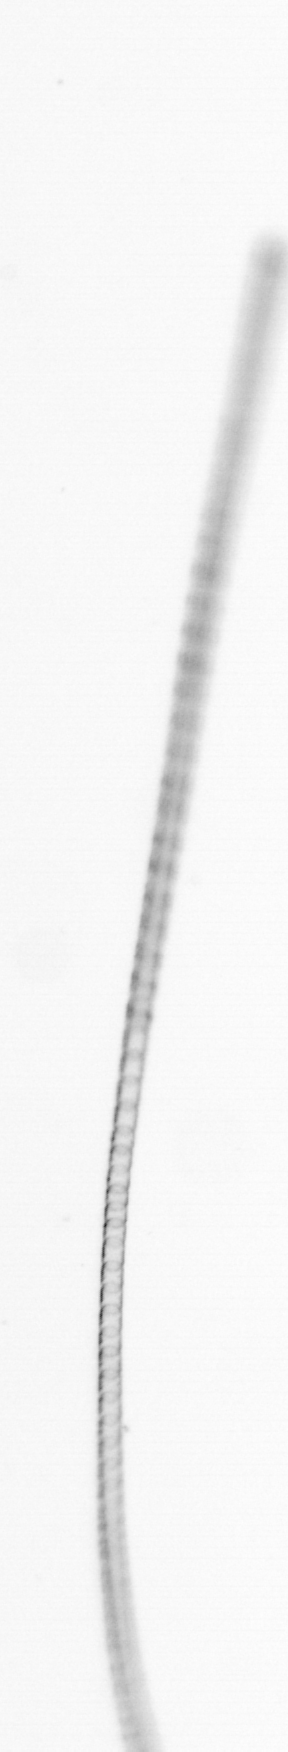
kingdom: Chromista
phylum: Ochrophyta
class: Bacillariophyceae
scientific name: Bacillariophyceae
